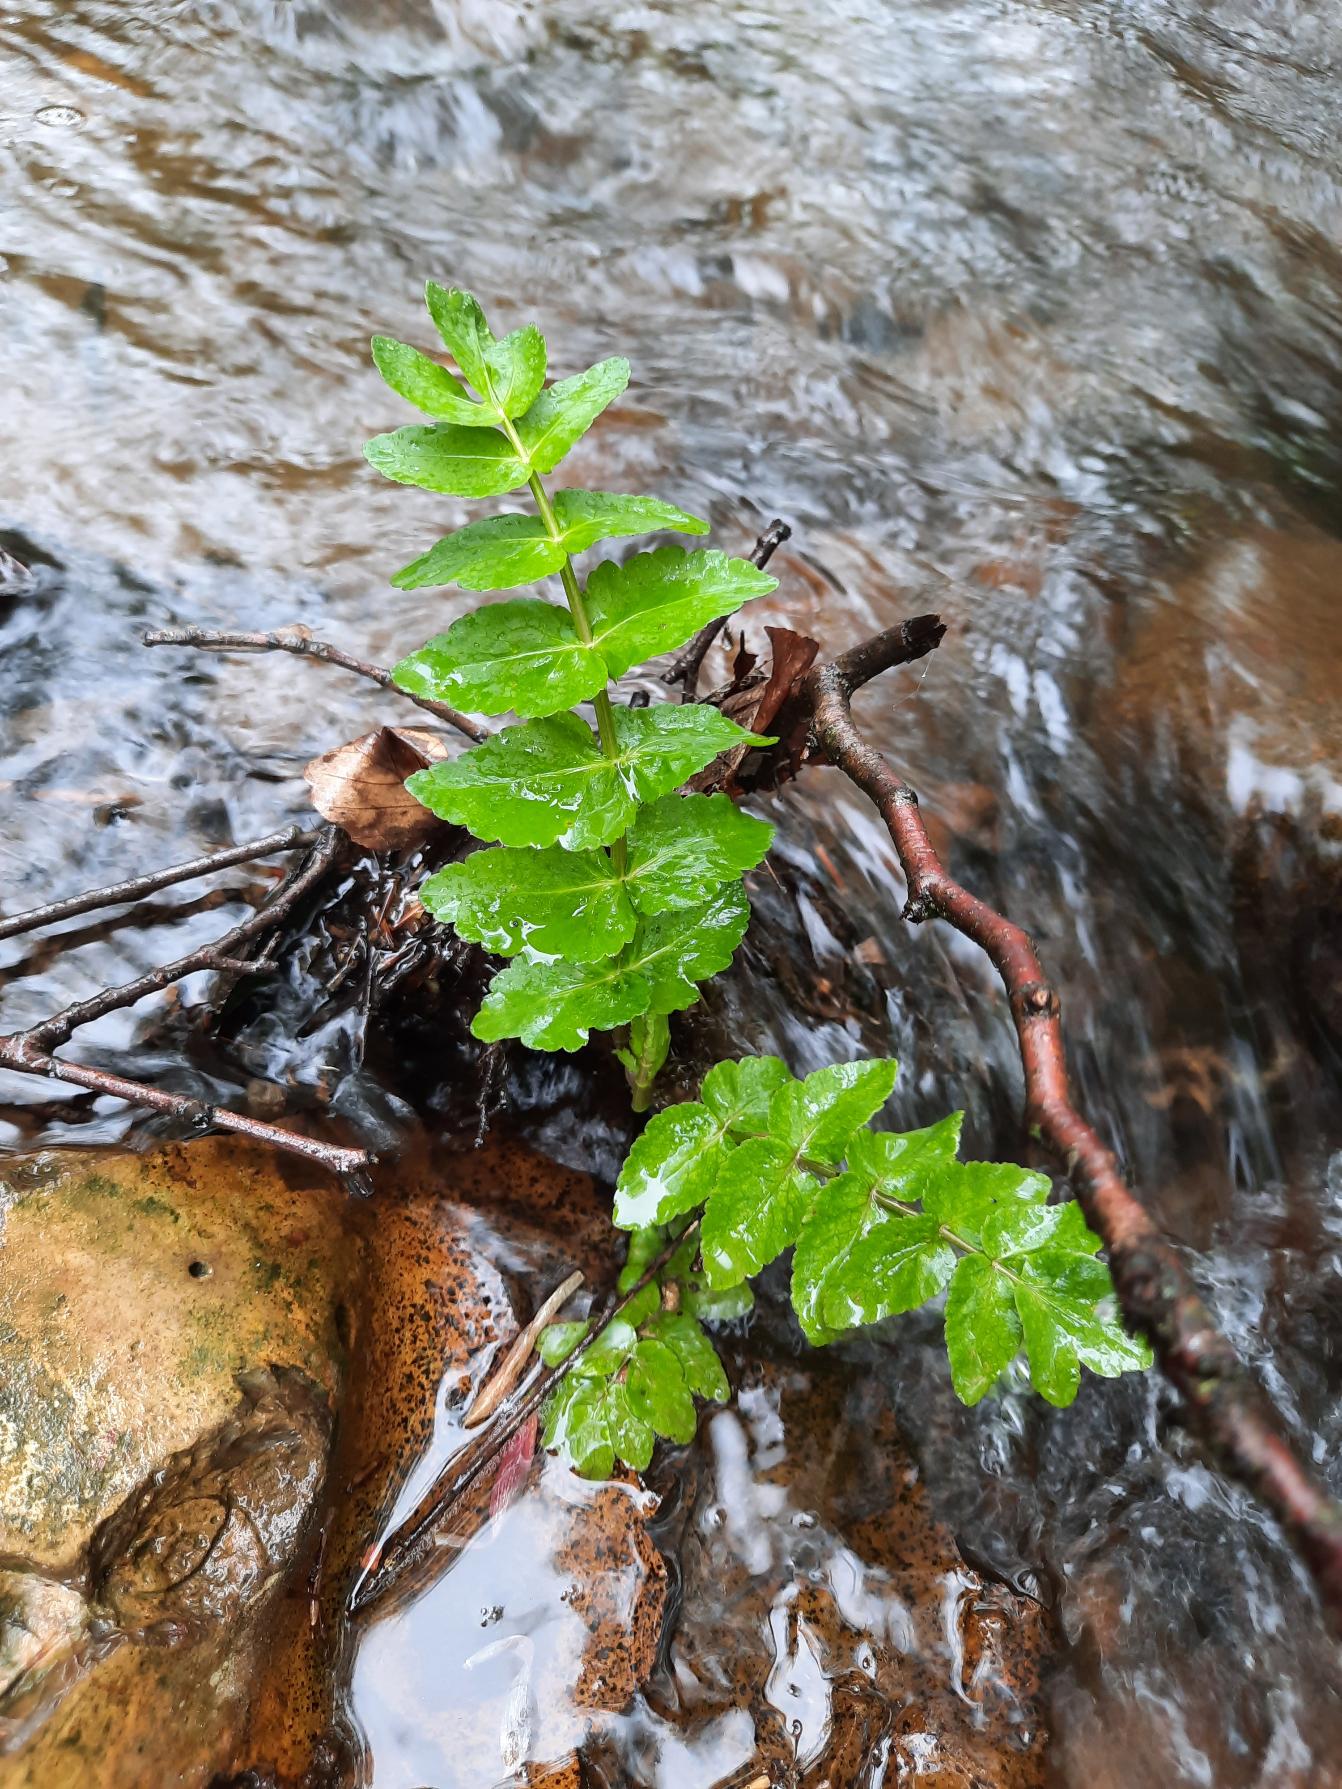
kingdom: Plantae
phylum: Tracheophyta
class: Magnoliopsida
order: Apiales
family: Apiaceae
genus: Berula
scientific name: Berula erecta
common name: Sideskærm
